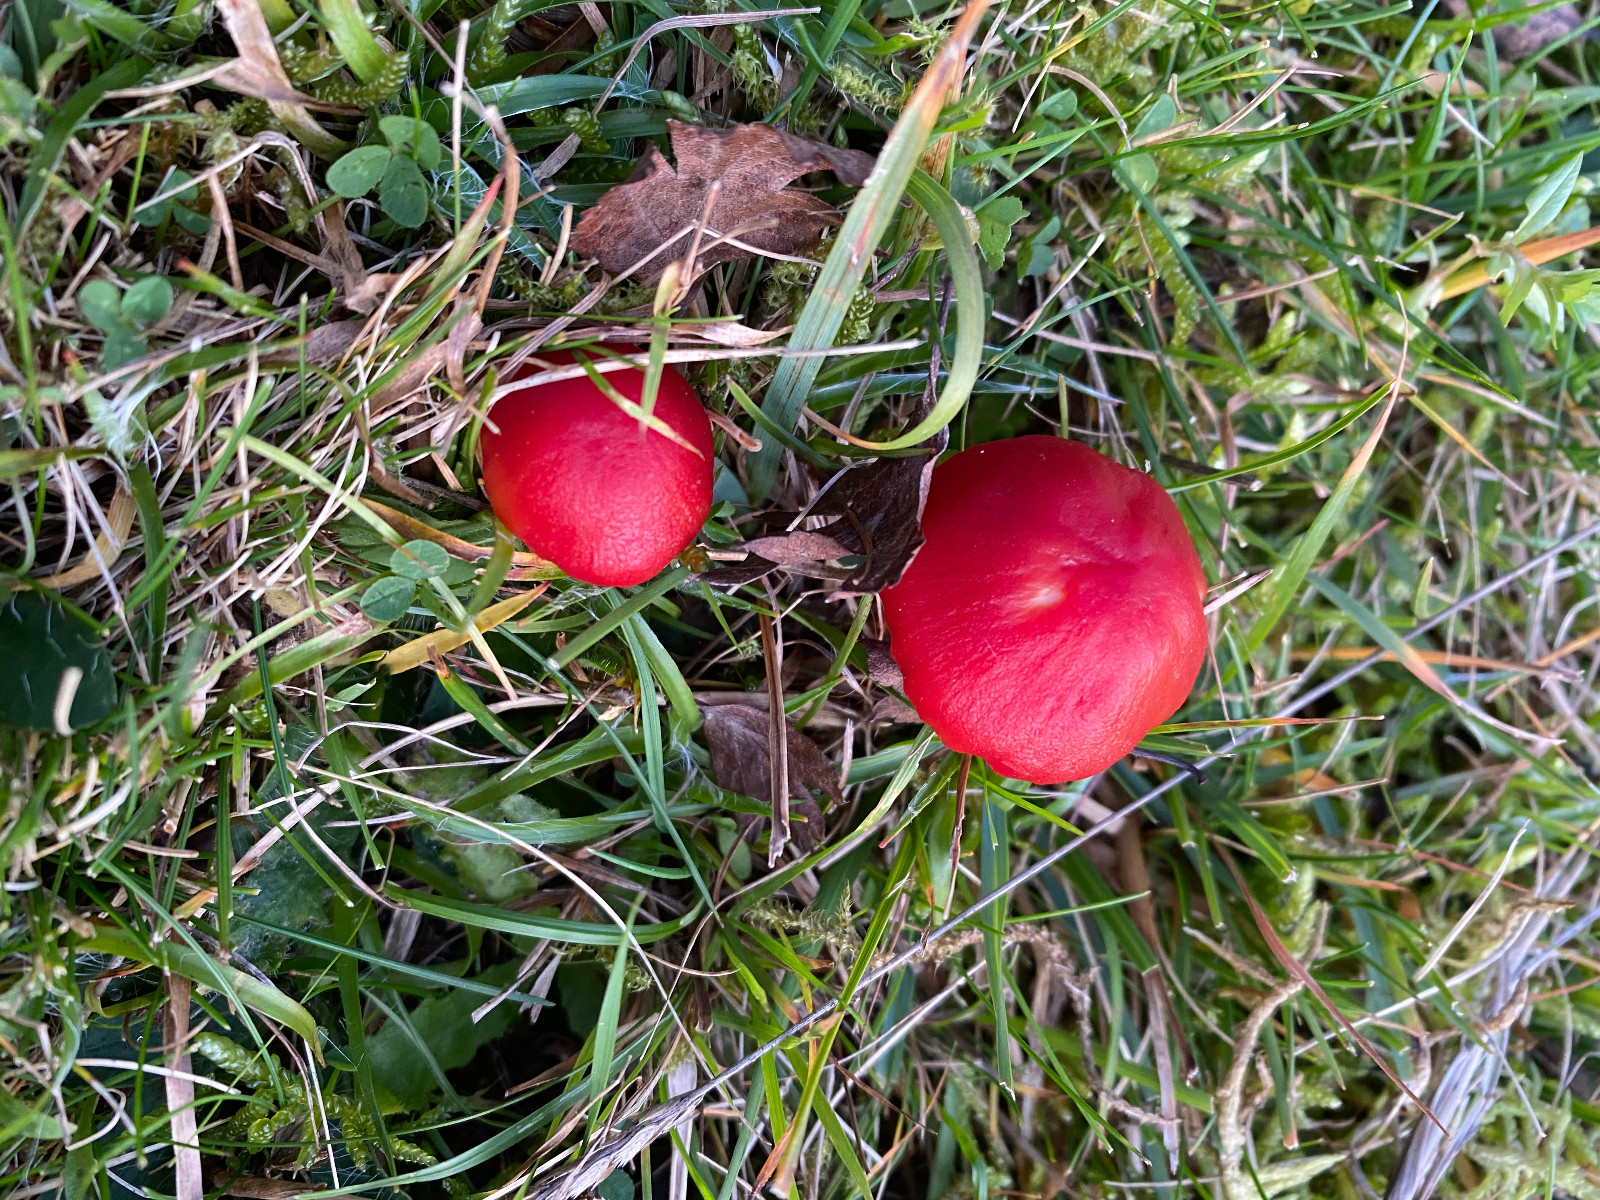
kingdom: Fungi
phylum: Basidiomycota
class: Agaricomycetes
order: Agaricales
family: Hygrophoraceae
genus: Hygrocybe
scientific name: Hygrocybe coccinea
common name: cinnober-vokshat
